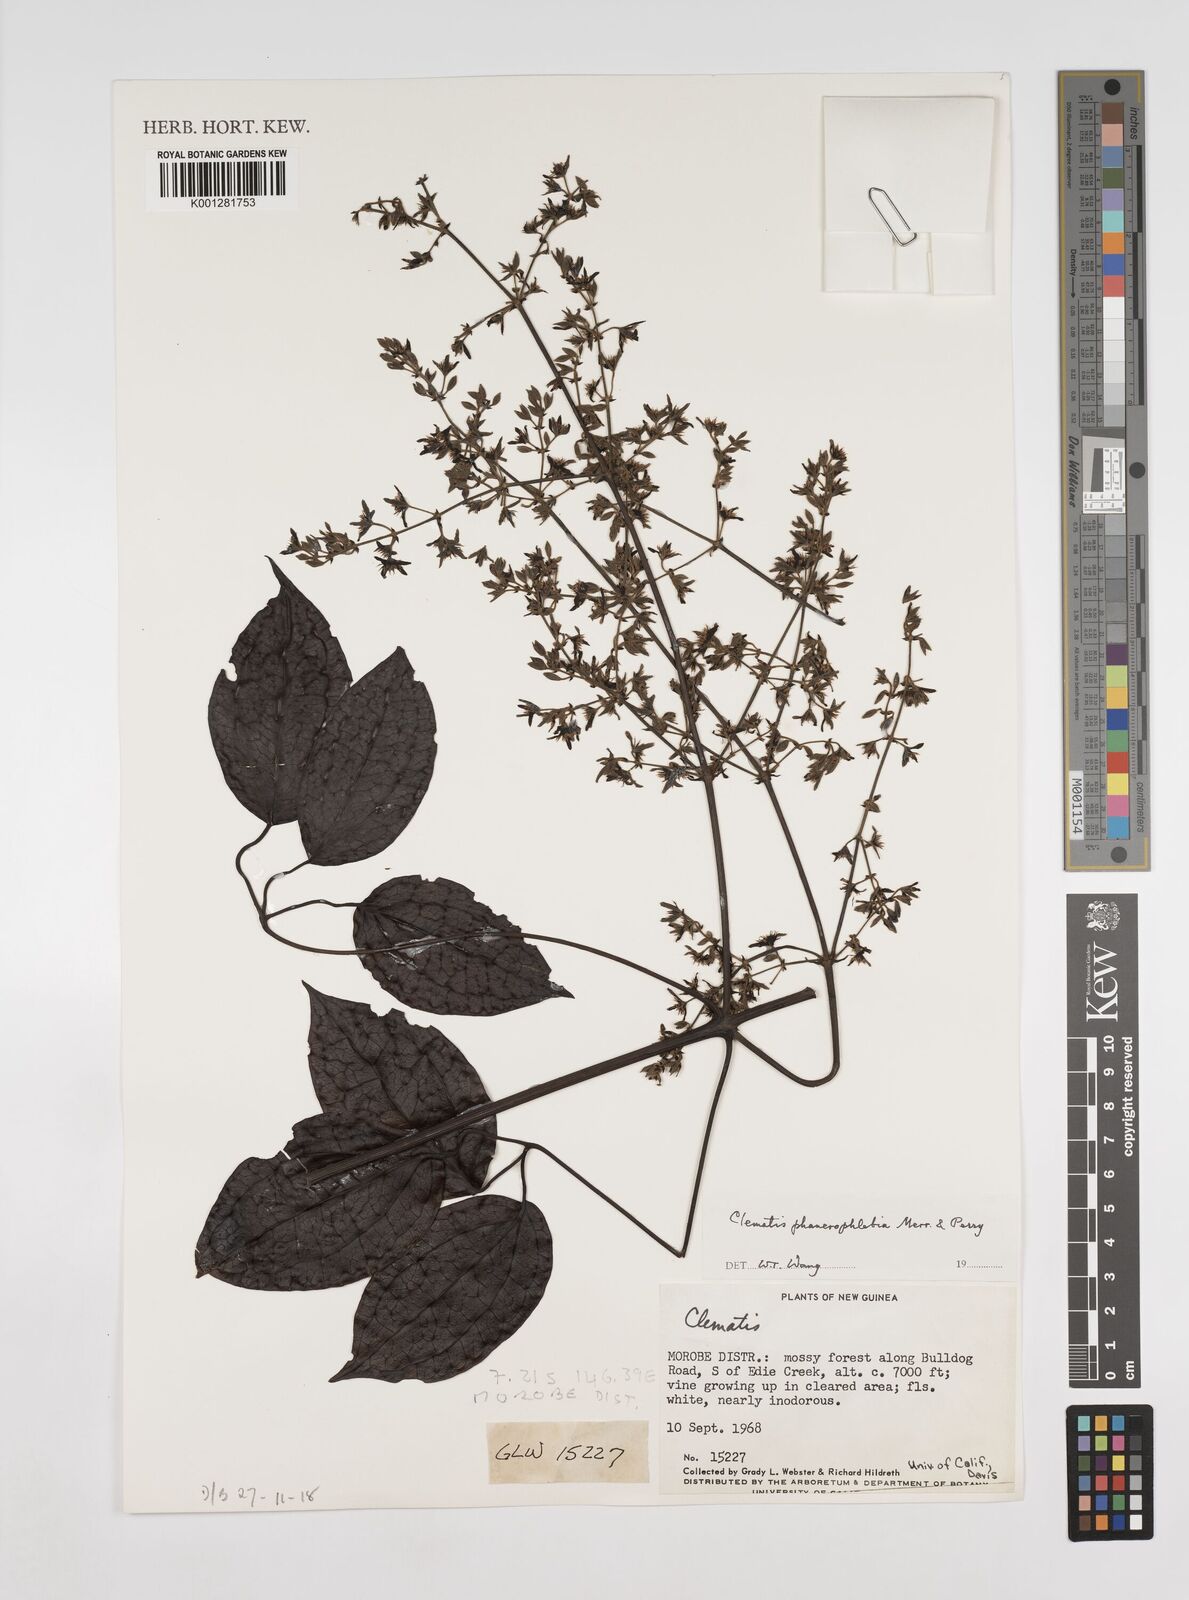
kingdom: Plantae
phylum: Tracheophyta
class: Magnoliopsida
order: Ranunculales
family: Ranunculaceae
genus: Clematis
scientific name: Clematis phanerophlebia
